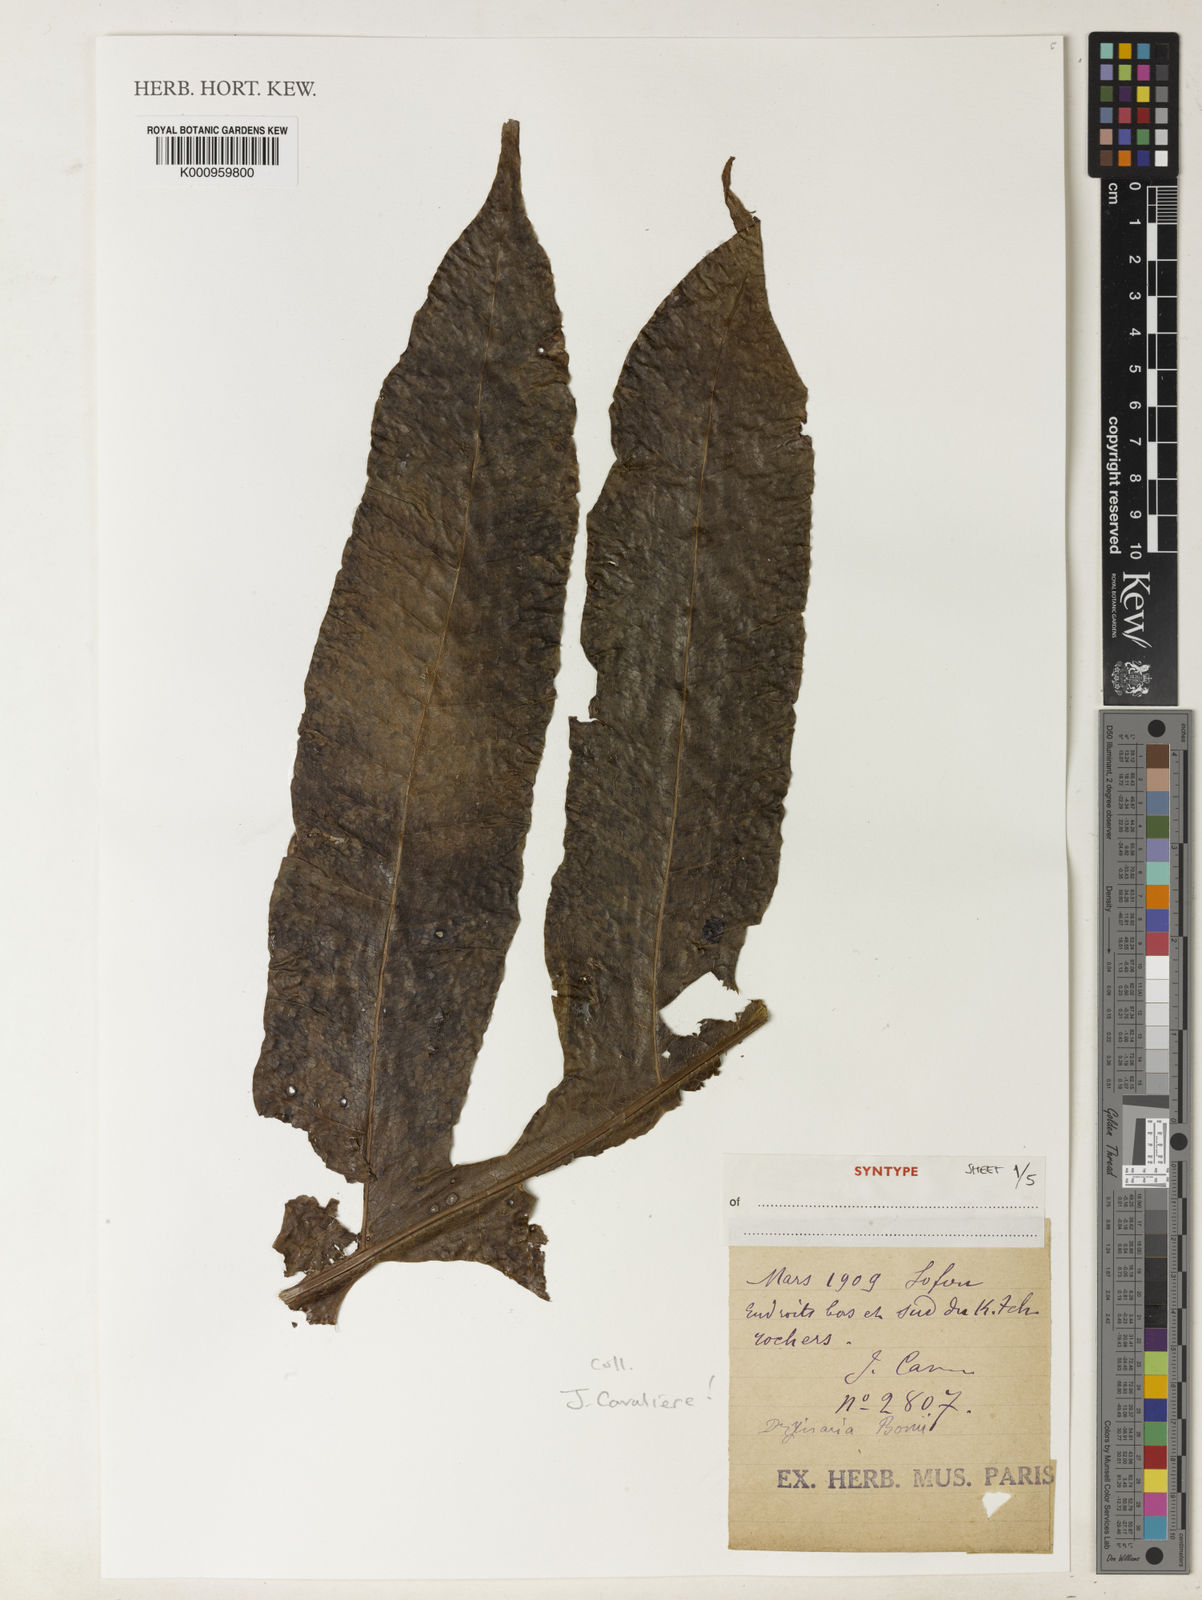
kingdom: Plantae
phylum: Tracheophyta
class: Polypodiopsida
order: Polypodiales
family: Polypodiaceae
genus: Drynaria
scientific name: Drynaria bonii
